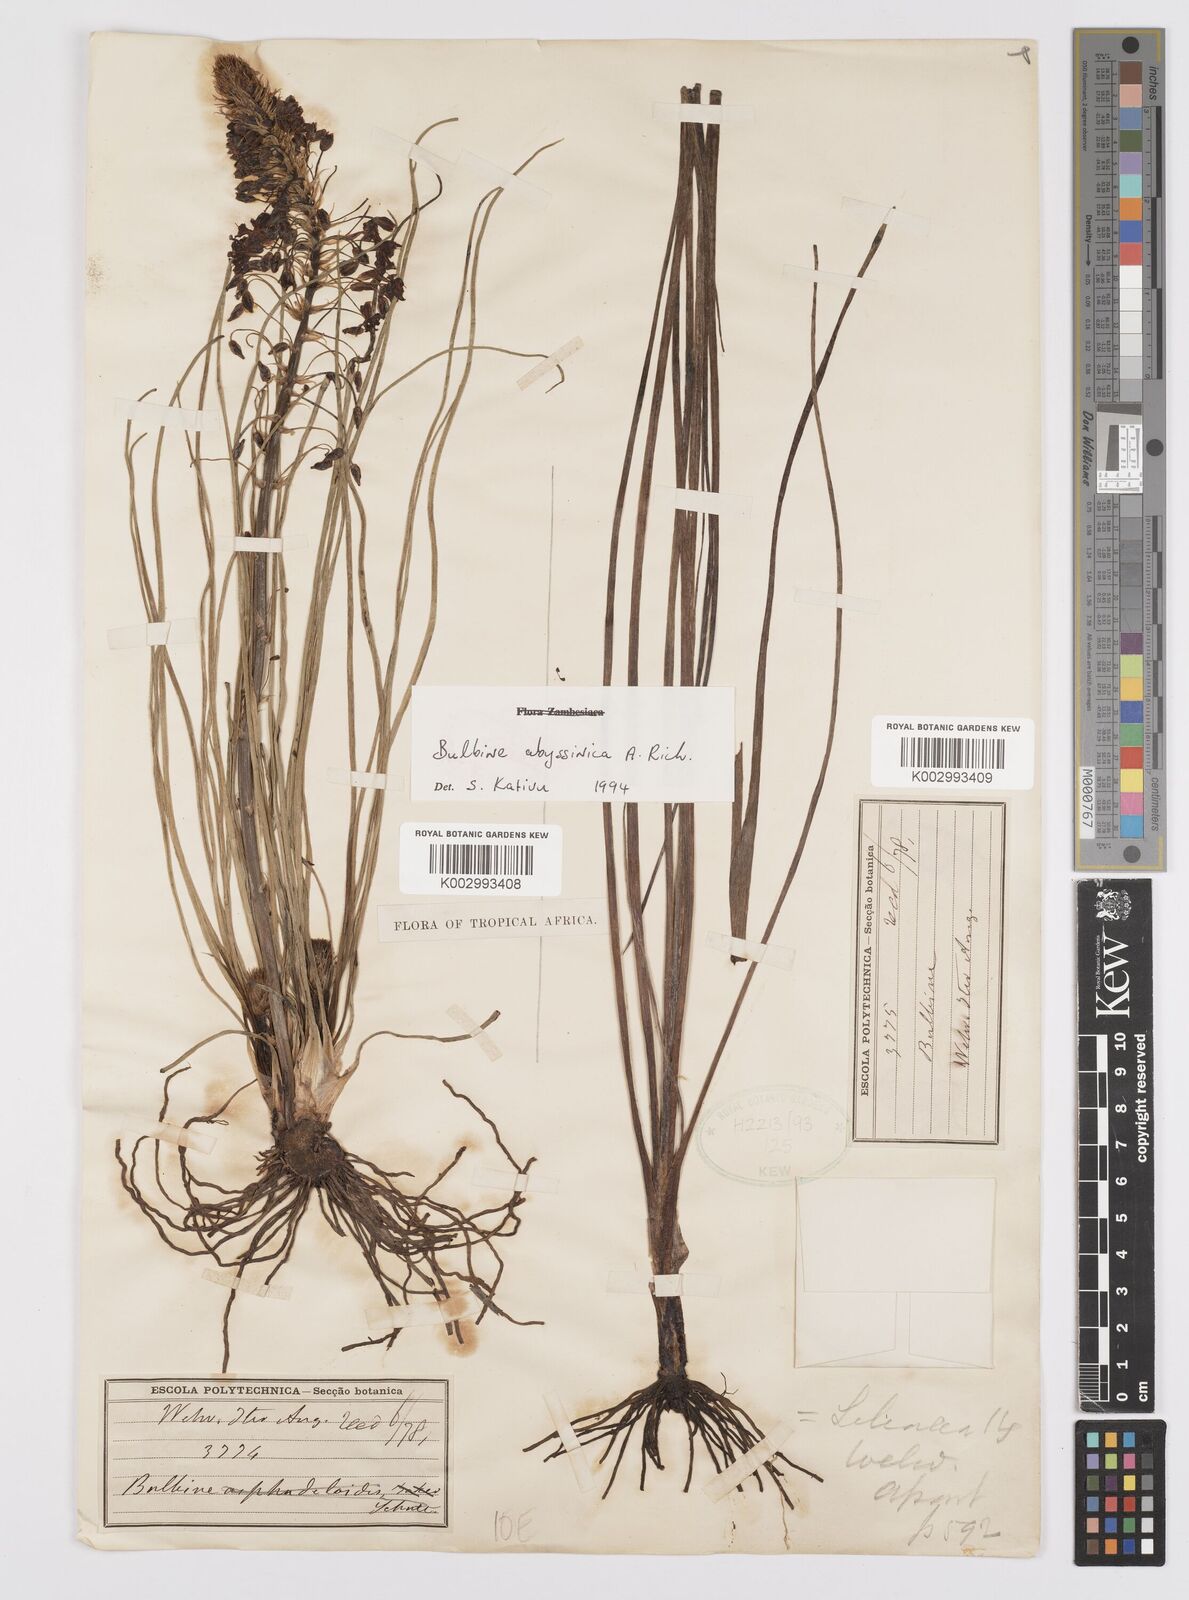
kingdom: Plantae
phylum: Tracheophyta
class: Liliopsida
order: Asparagales
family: Asphodelaceae
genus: Bulbine
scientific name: Bulbine abyssinica
